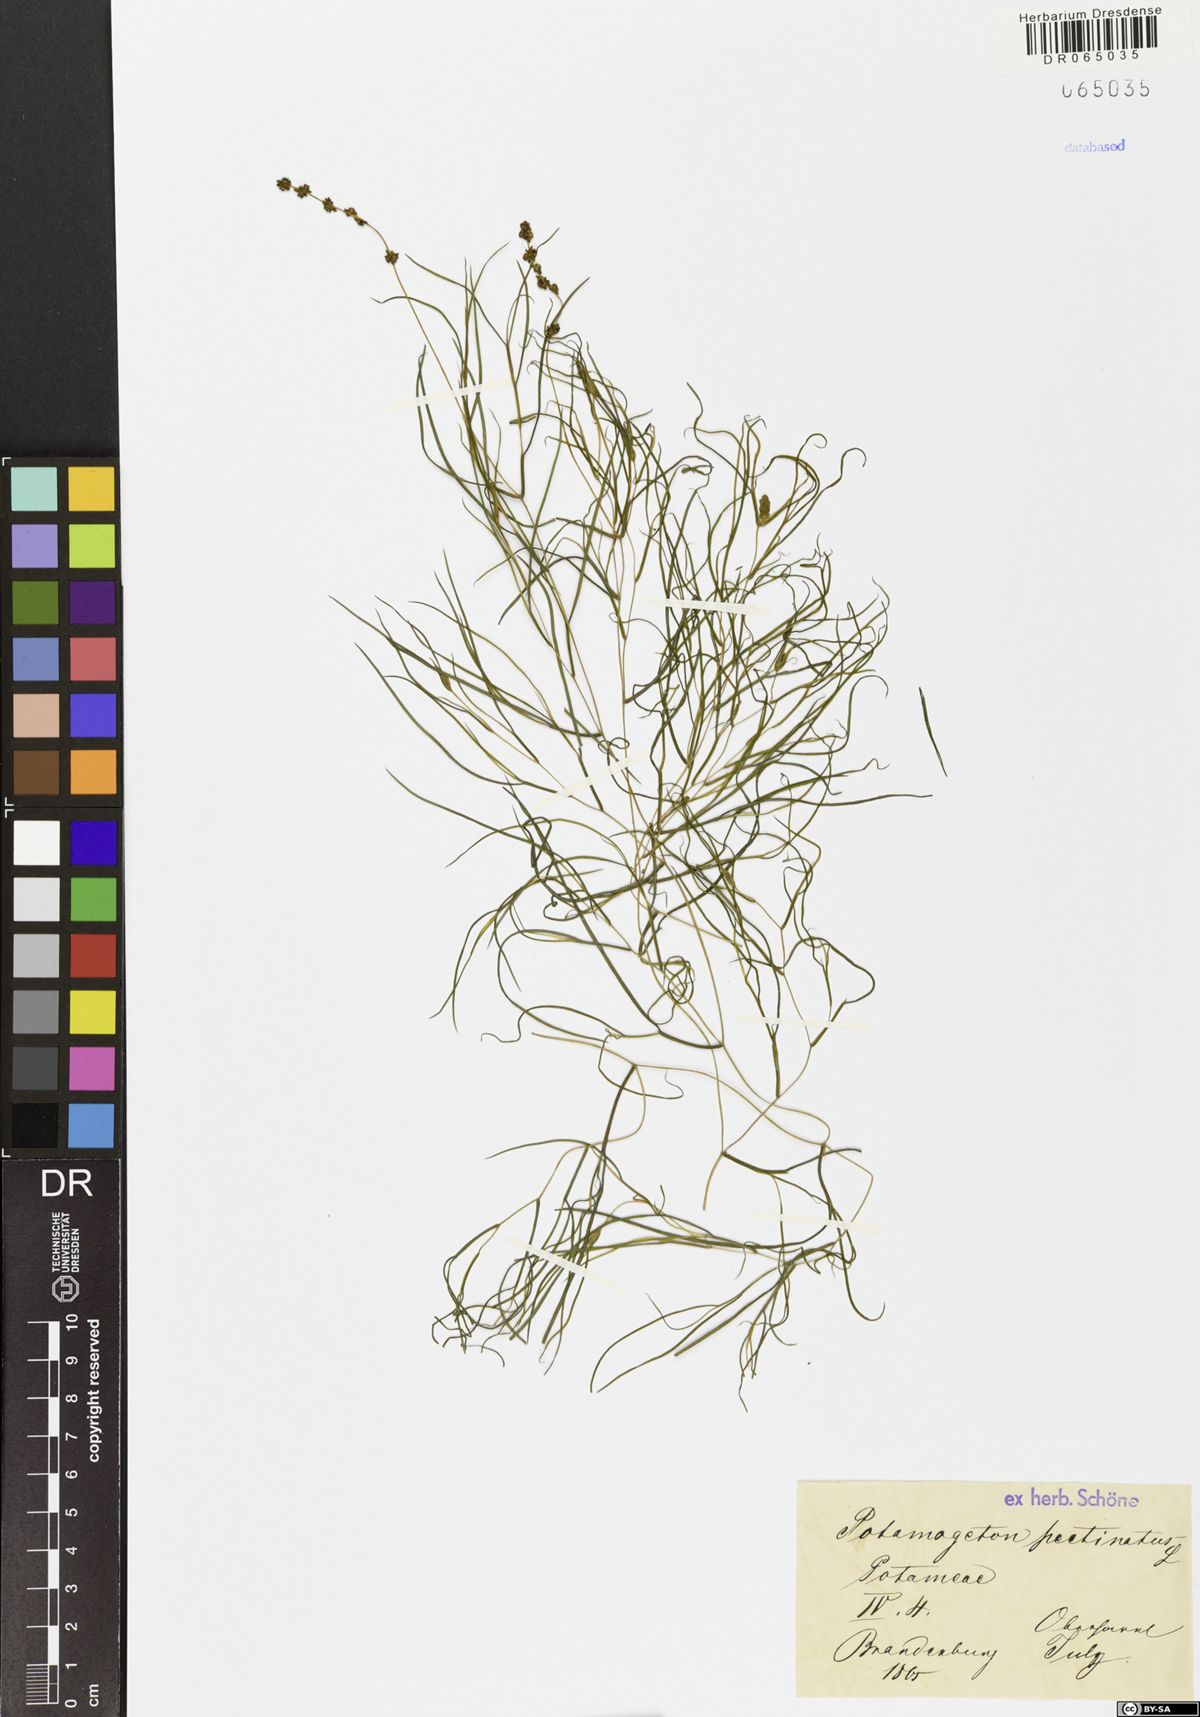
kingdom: Plantae
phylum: Tracheophyta
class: Liliopsida
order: Alismatales
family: Potamogetonaceae
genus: Stuckenia
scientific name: Stuckenia pectinata
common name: Sago pondweed
